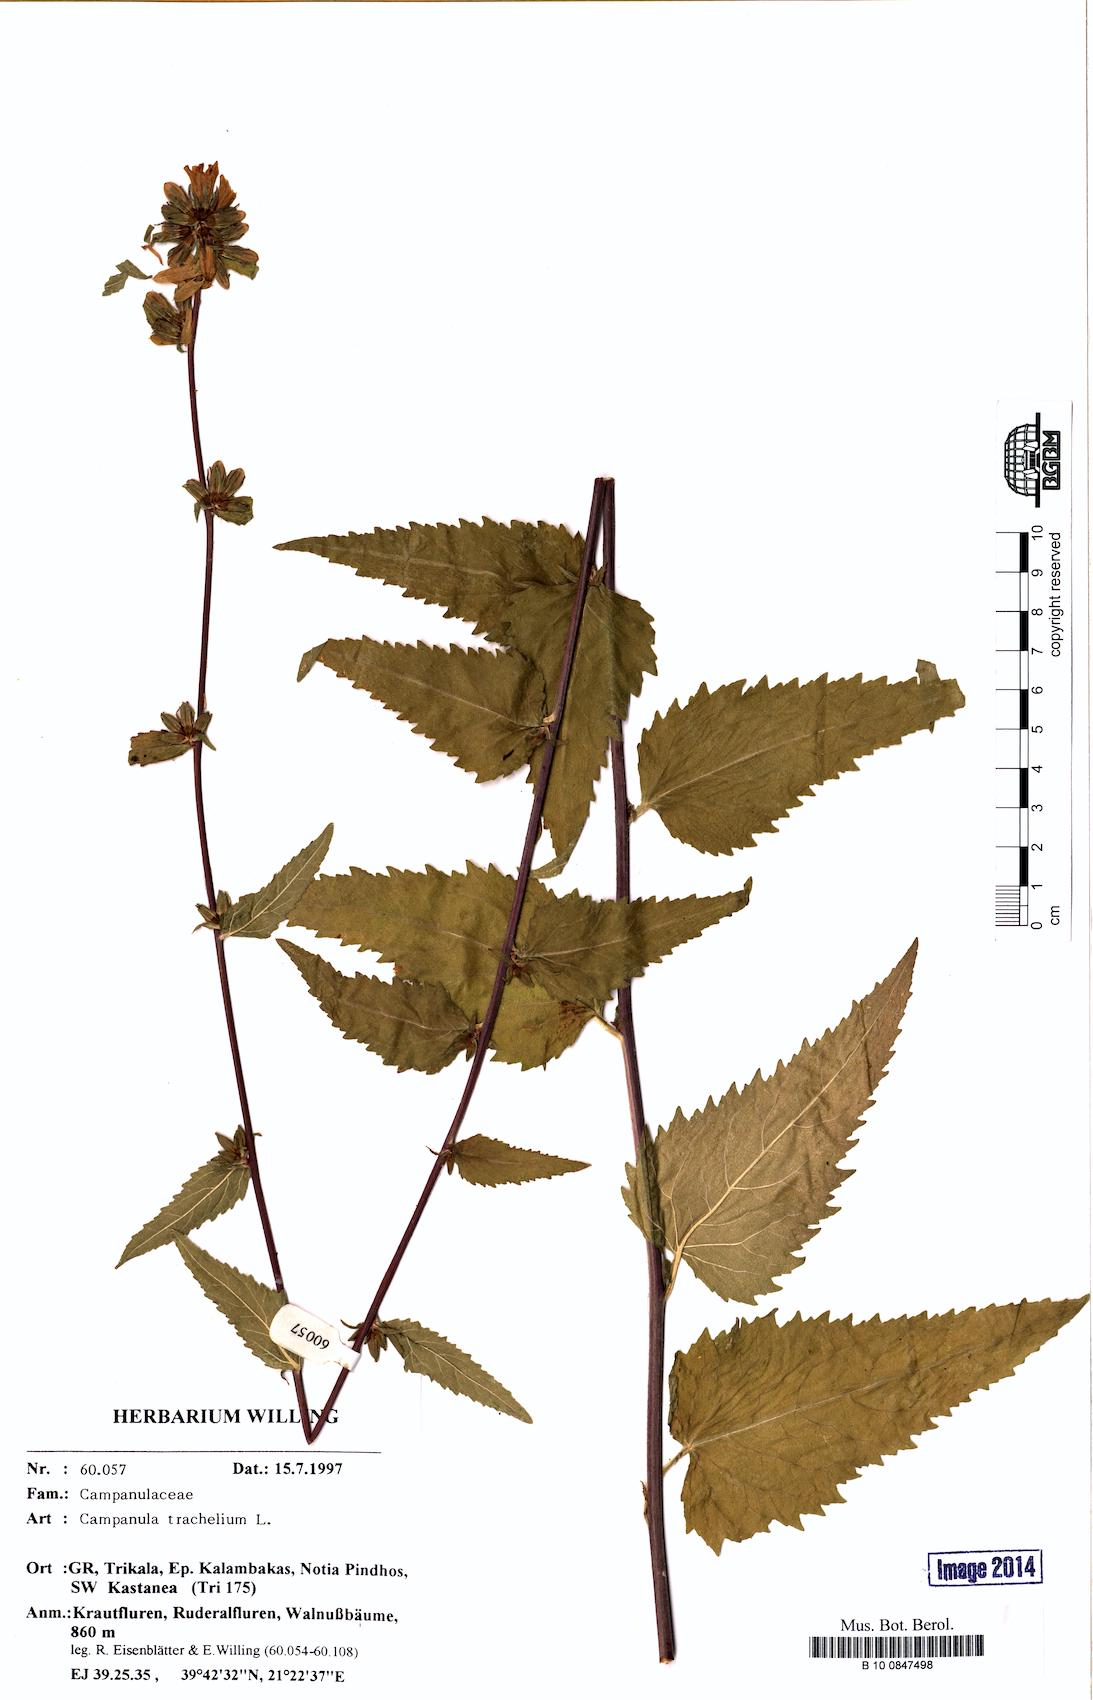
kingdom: Plantae
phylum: Tracheophyta
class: Magnoliopsida
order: Asterales
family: Campanulaceae
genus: Campanula
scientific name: Campanula trachelium
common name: Nettle-leaved bellflower
